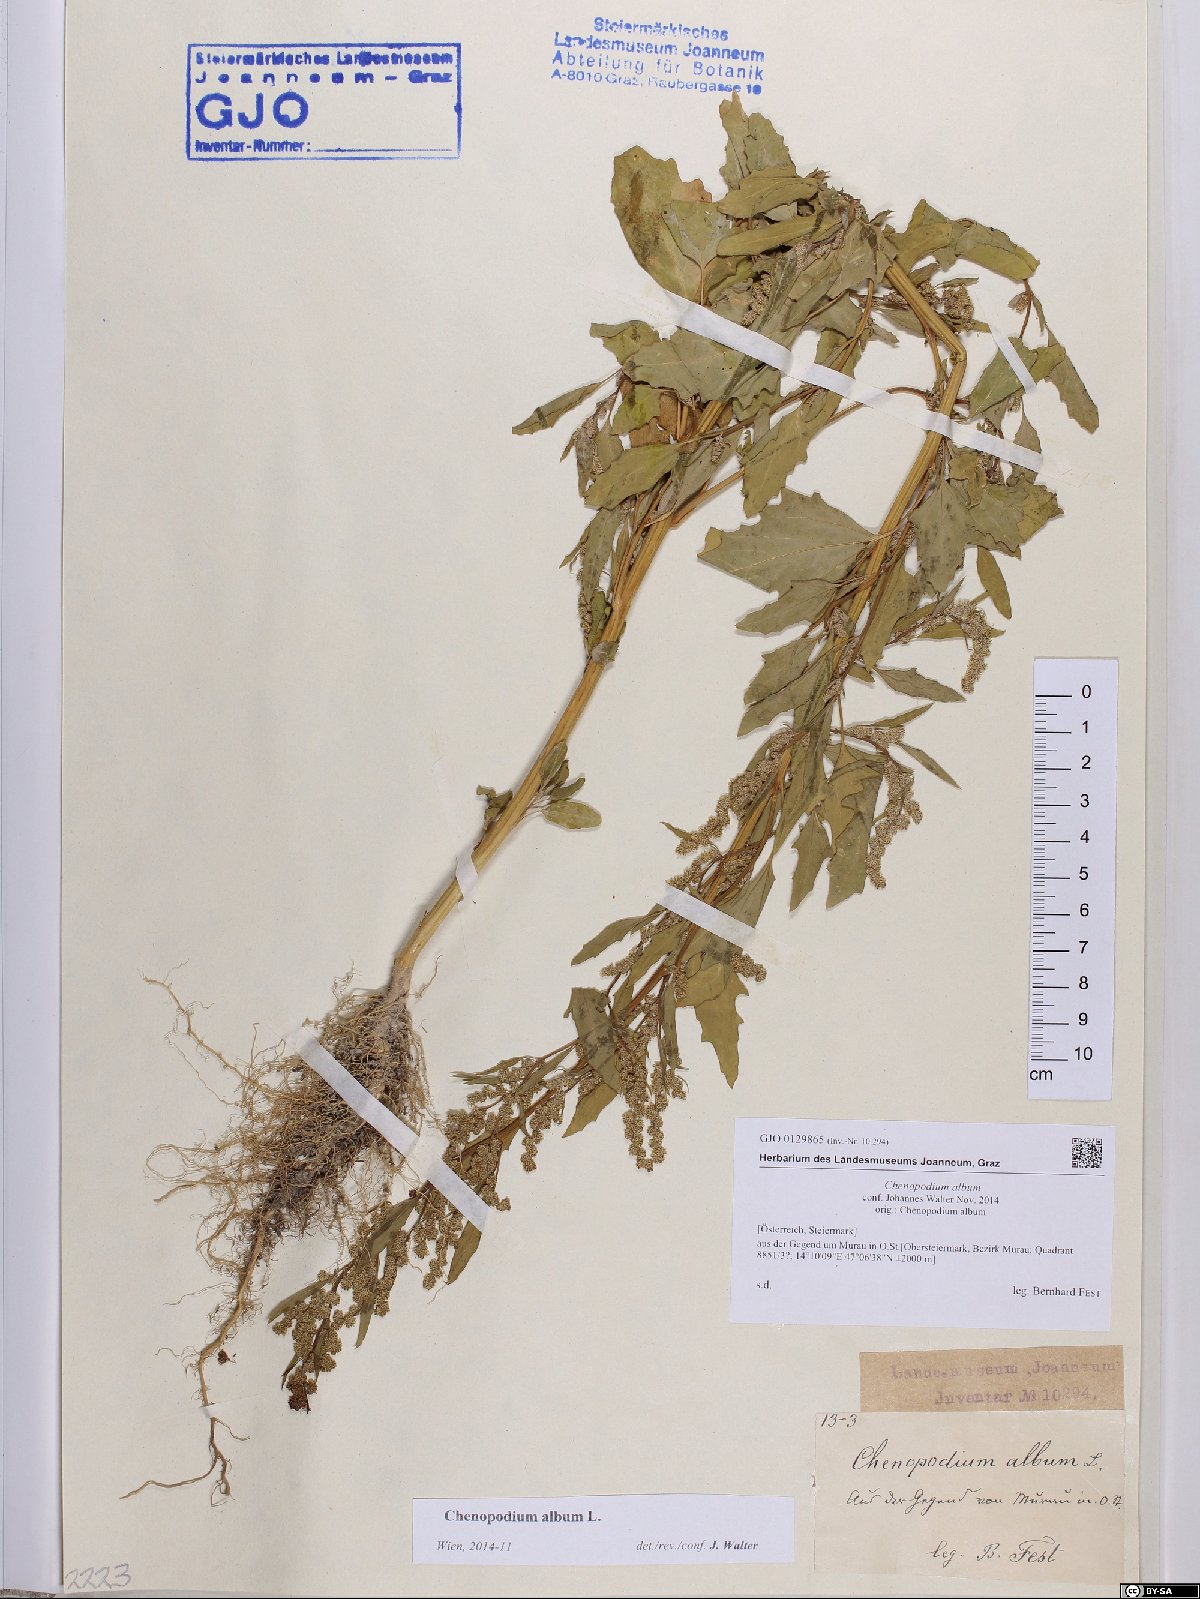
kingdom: Plantae
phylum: Tracheophyta
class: Magnoliopsida
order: Caryophyllales
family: Amaranthaceae
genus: Chenopodium
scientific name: Chenopodium album
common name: Fat-hen
